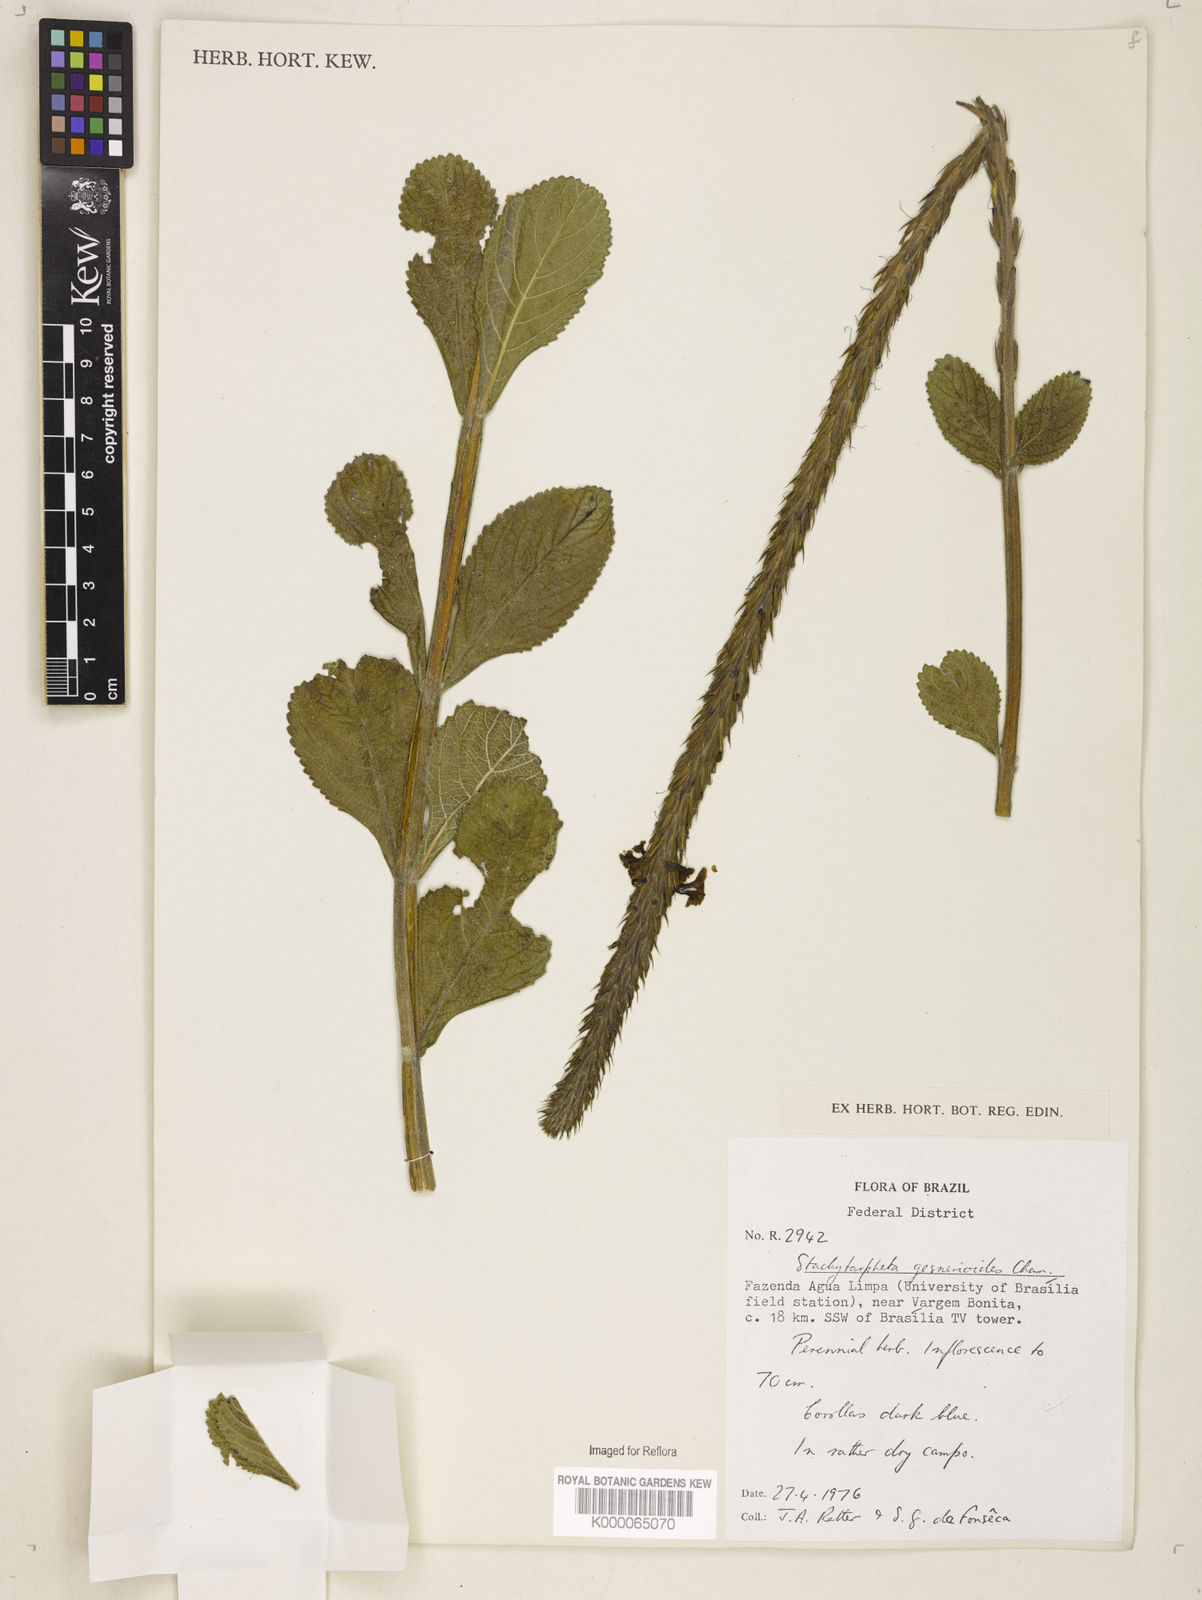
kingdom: Plantae
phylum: Tracheophyta
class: Magnoliopsida
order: Lamiales
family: Verbenaceae
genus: Stachytarpheta
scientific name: Stachytarpheta gesnerioides
